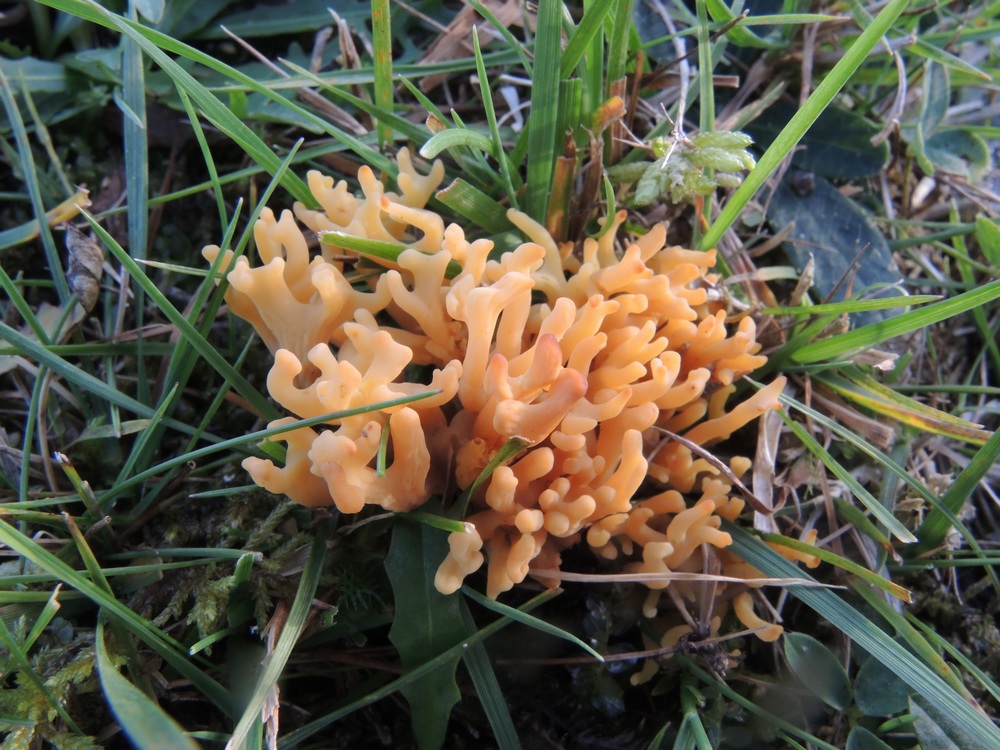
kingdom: Fungi
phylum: Basidiomycota
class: Agaricomycetes
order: Agaricales
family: Clavariaceae
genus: Clavulinopsis
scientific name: Clavulinopsis corniculata
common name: eng-køllesvamp
